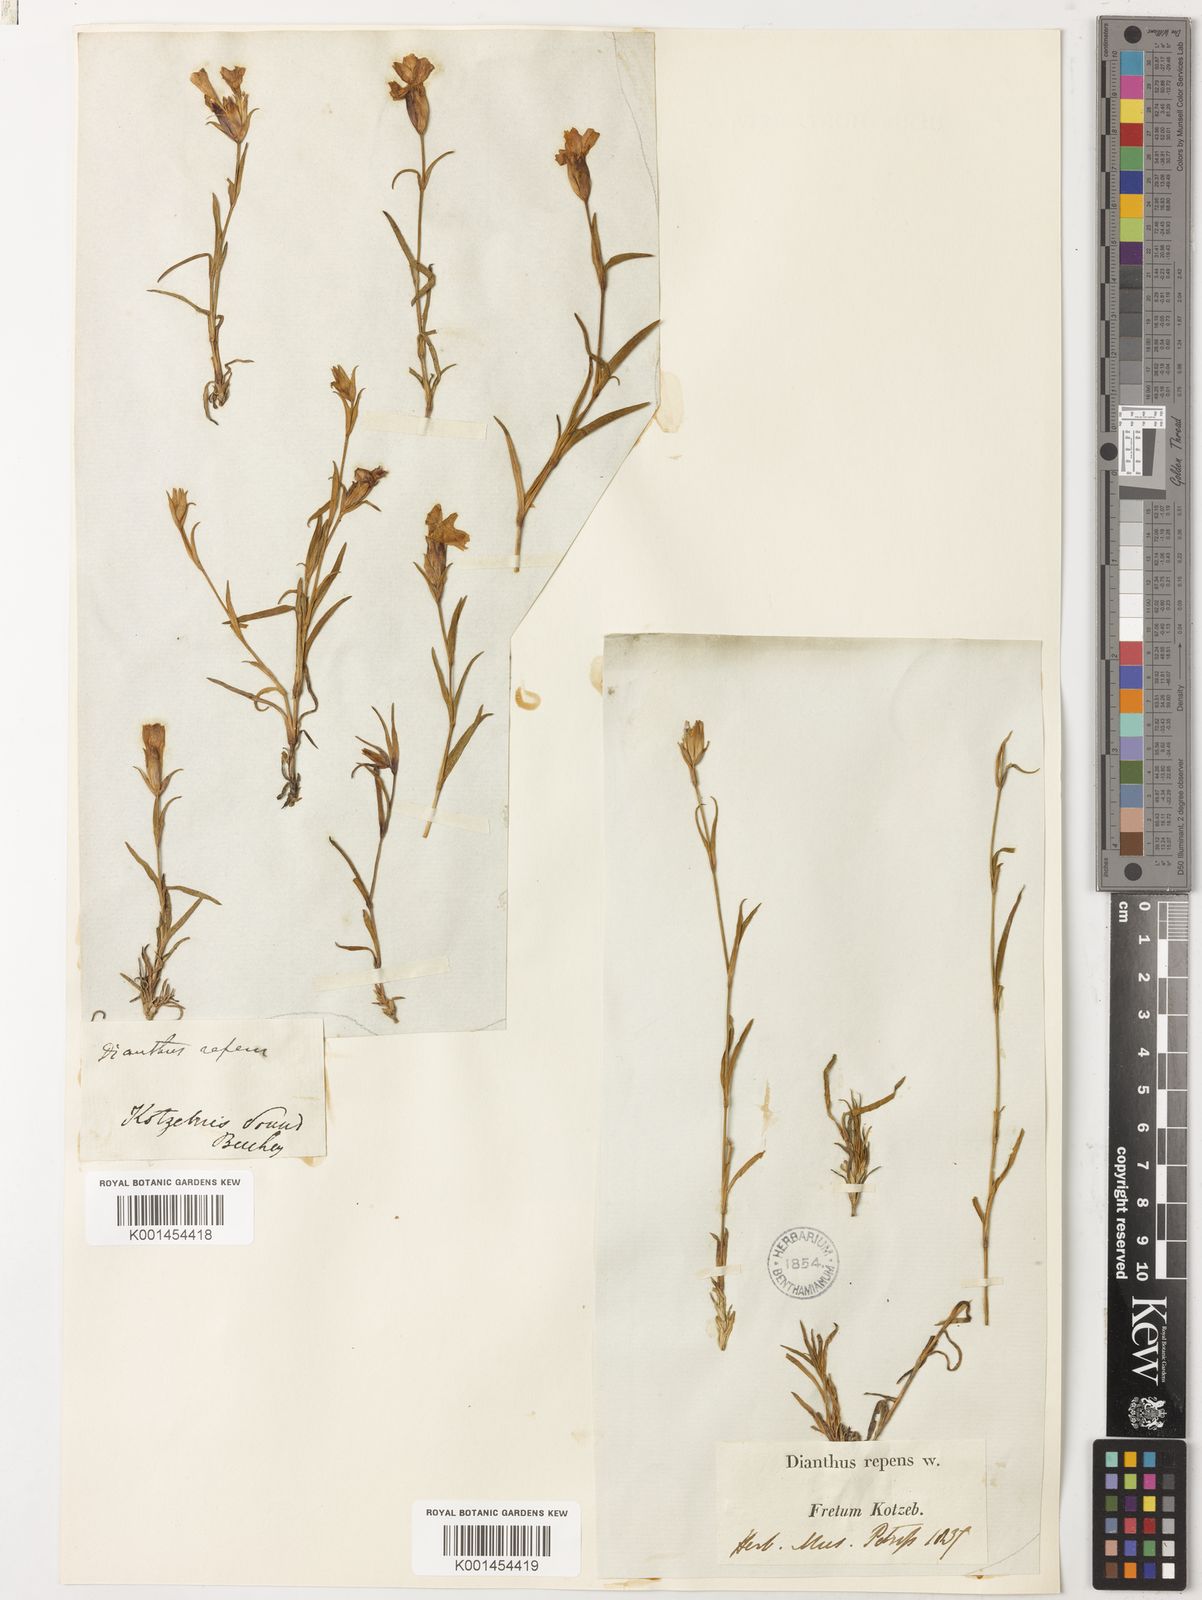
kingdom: Plantae
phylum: Tracheophyta
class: Magnoliopsida
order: Caryophyllales
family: Caryophyllaceae
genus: Dianthus
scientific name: Dianthus repens
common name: Northern pink
